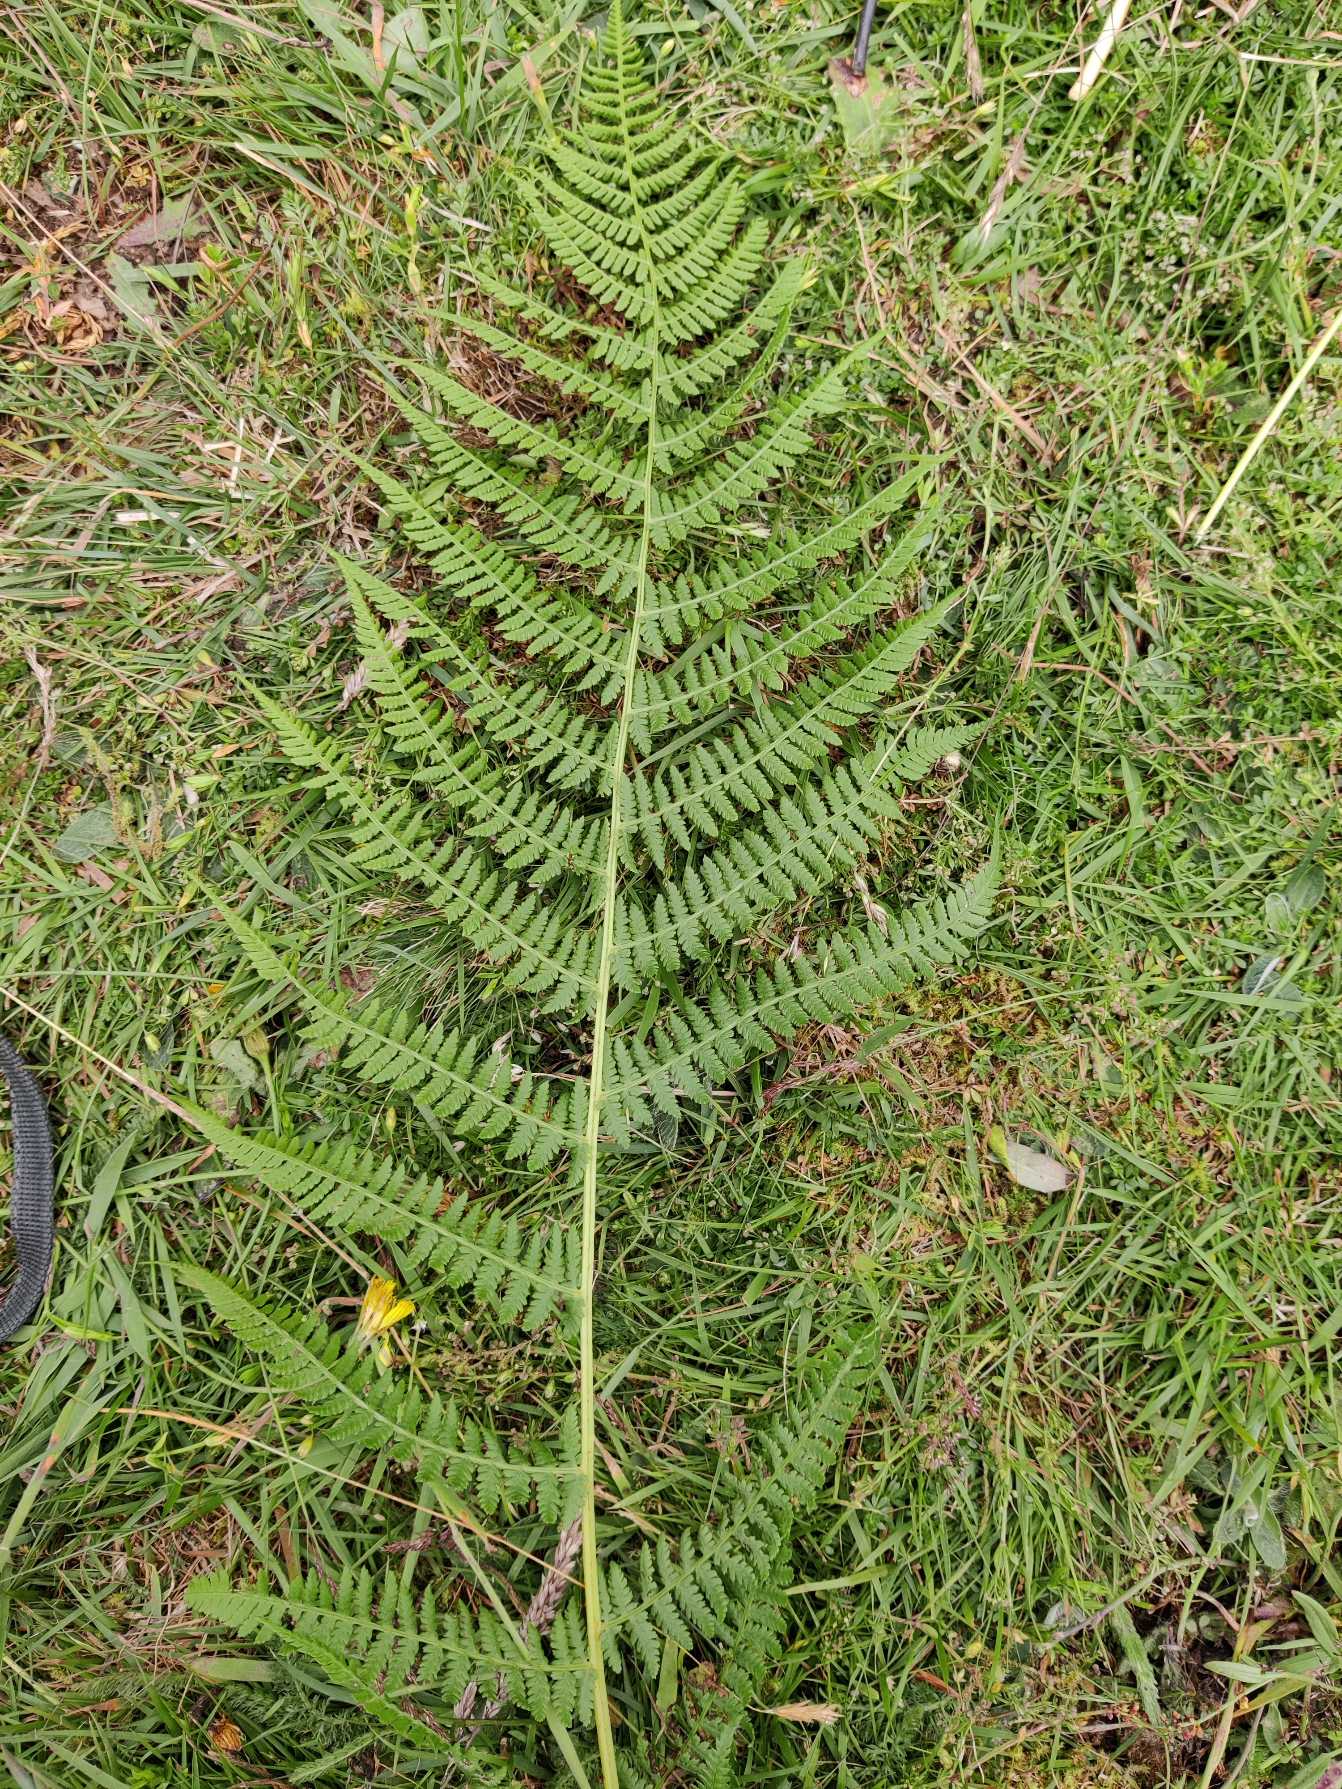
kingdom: Plantae
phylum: Tracheophyta
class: Polypodiopsida
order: Polypodiales
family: Athyriaceae
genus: Athyrium
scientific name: Athyrium filix-femina
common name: Fjerbregne
